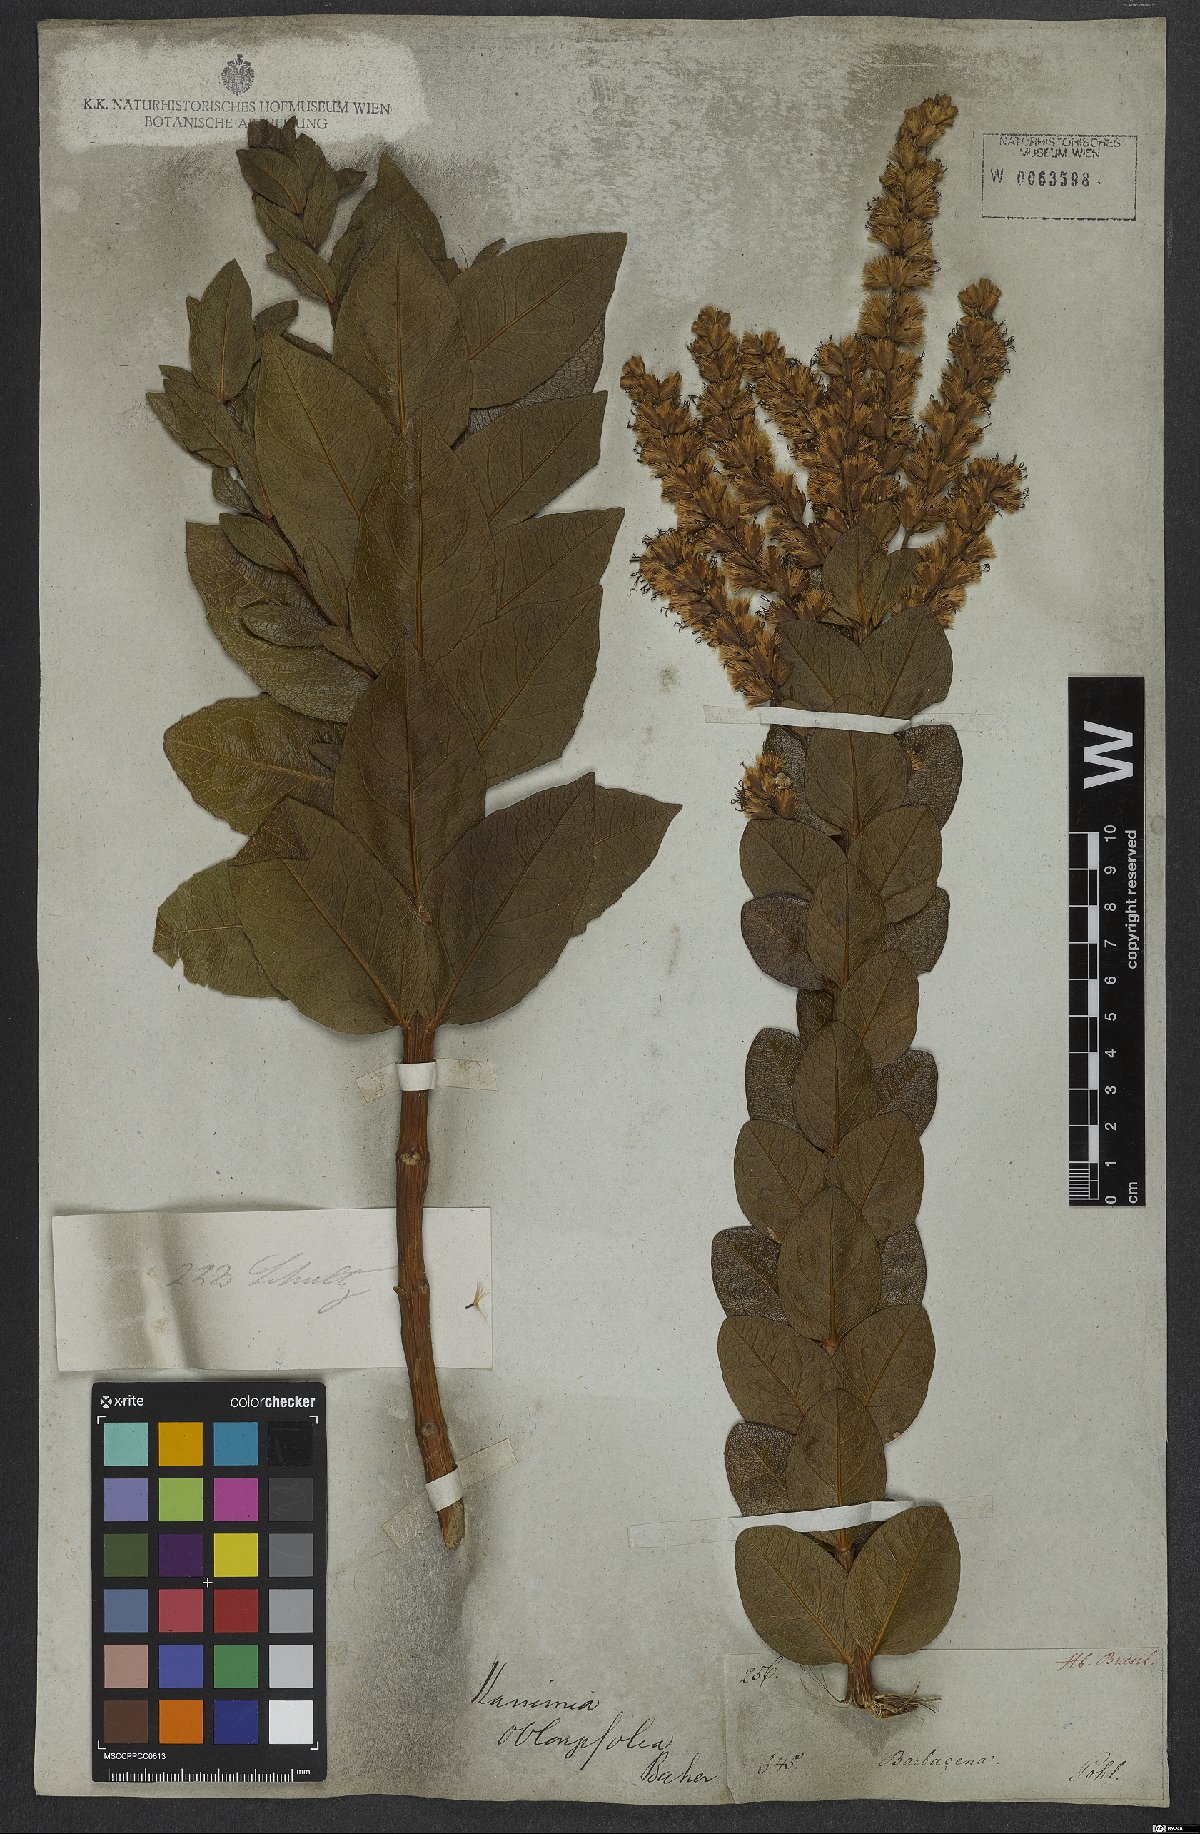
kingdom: Plantae
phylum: Tracheophyta
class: Magnoliopsida
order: Asterales
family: Asteraceae
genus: Mikania
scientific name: Mikania oblongifolia
